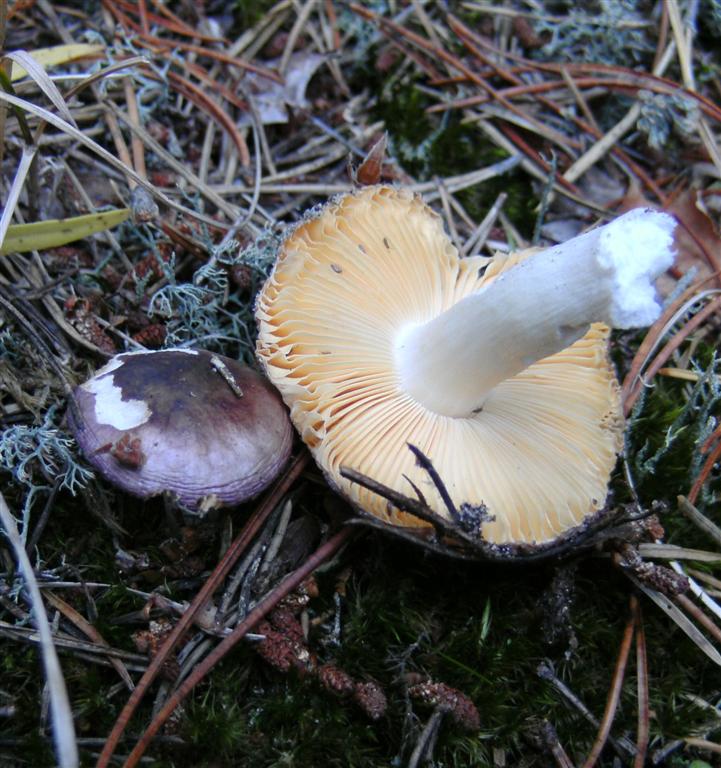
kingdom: Fungi
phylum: Basidiomycota
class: Agaricomycetes
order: Russulales
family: Russulaceae
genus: Russula
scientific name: Russula cessans
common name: fyrre-skørhat
